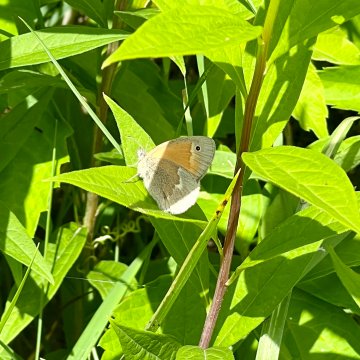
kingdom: Animalia
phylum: Arthropoda
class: Insecta
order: Lepidoptera
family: Nymphalidae
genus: Coenonympha
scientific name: Coenonympha tullia
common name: Large Heath
